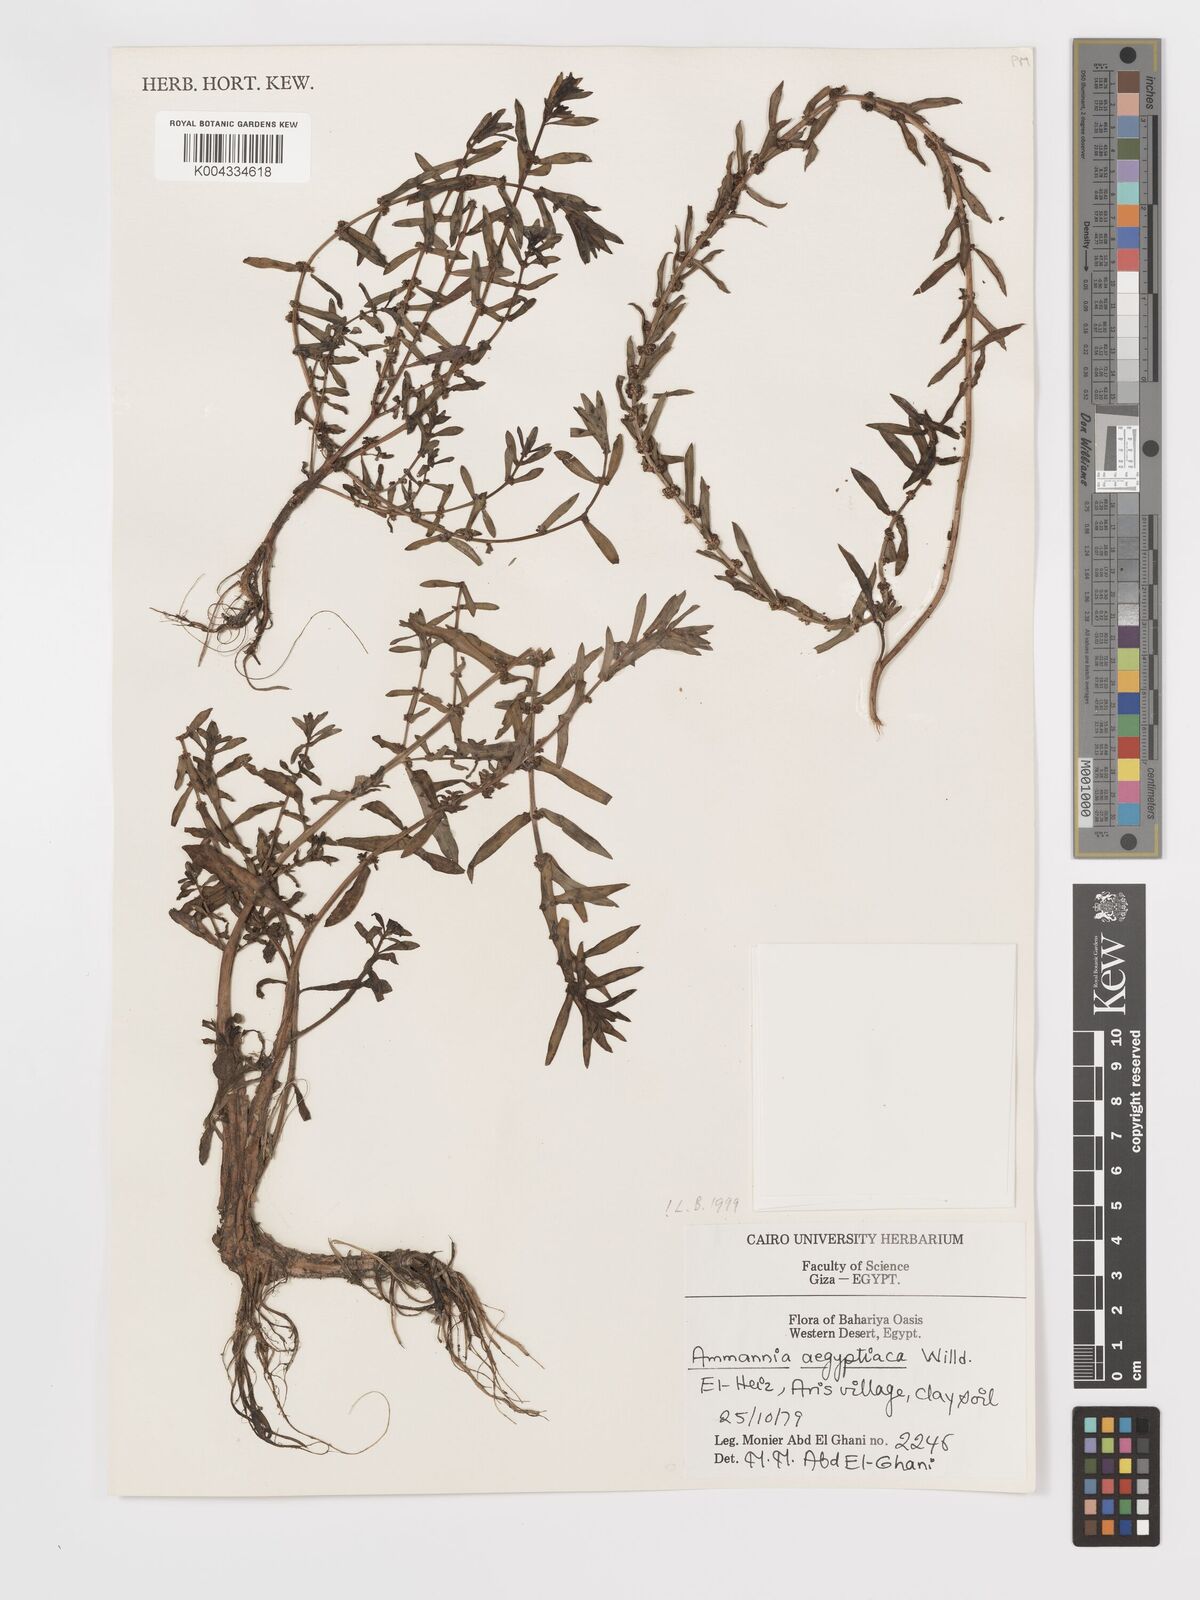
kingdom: Plantae
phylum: Tracheophyta
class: Magnoliopsida
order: Myrtales
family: Lythraceae
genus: Ammannia
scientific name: Ammannia
